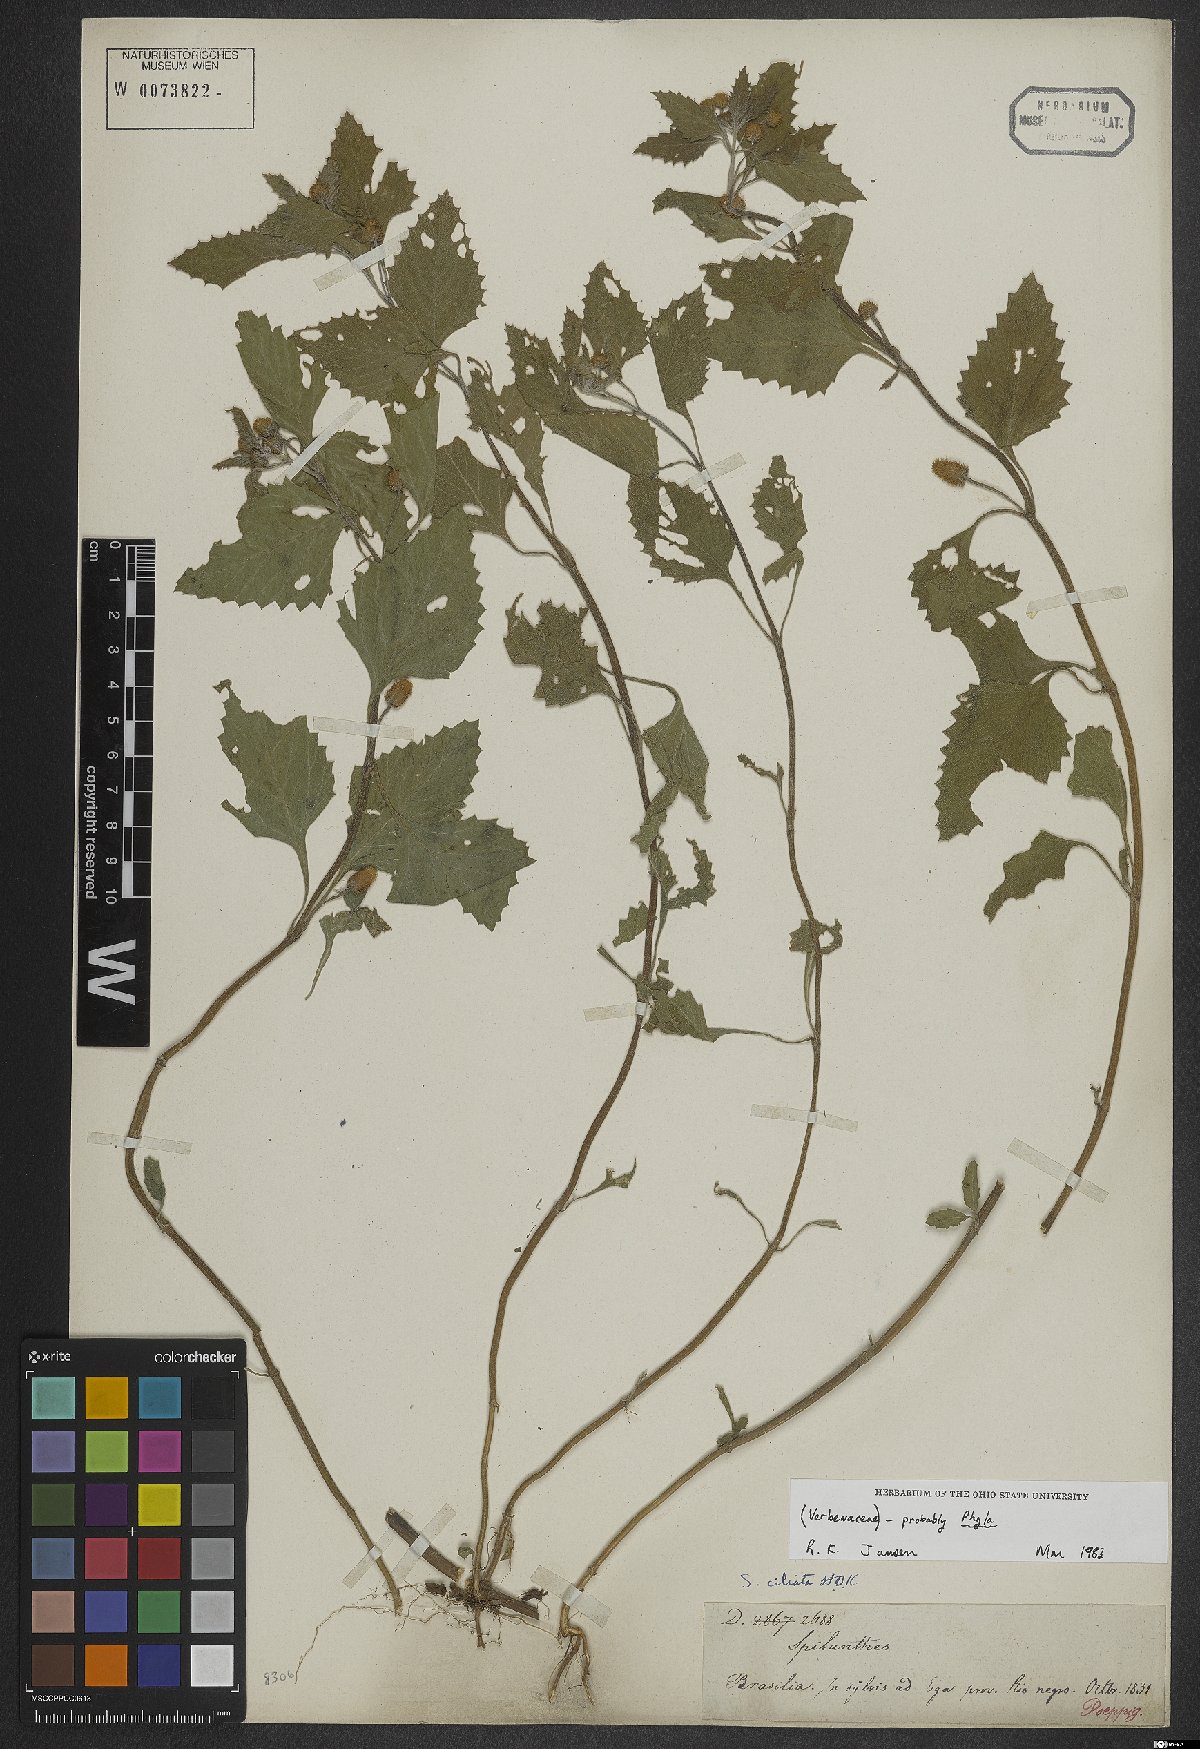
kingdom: Plantae
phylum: Tracheophyta
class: Magnoliopsida
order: Lamiales
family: Verbenaceae
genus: Phyla
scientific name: Phyla
